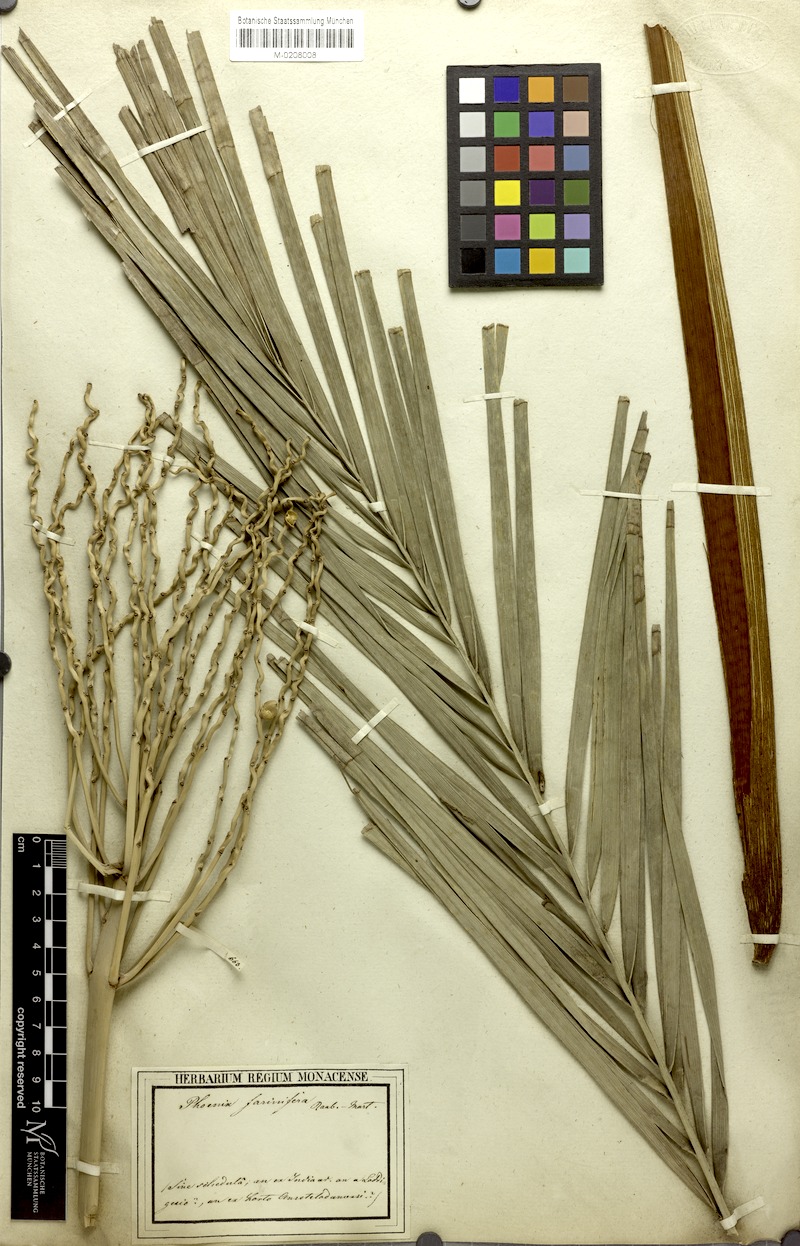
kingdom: Plantae
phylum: Tracheophyta
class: Liliopsida
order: Arecales
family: Arecaceae
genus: Phoenix
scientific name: Phoenix pusilla
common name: Flour palm
